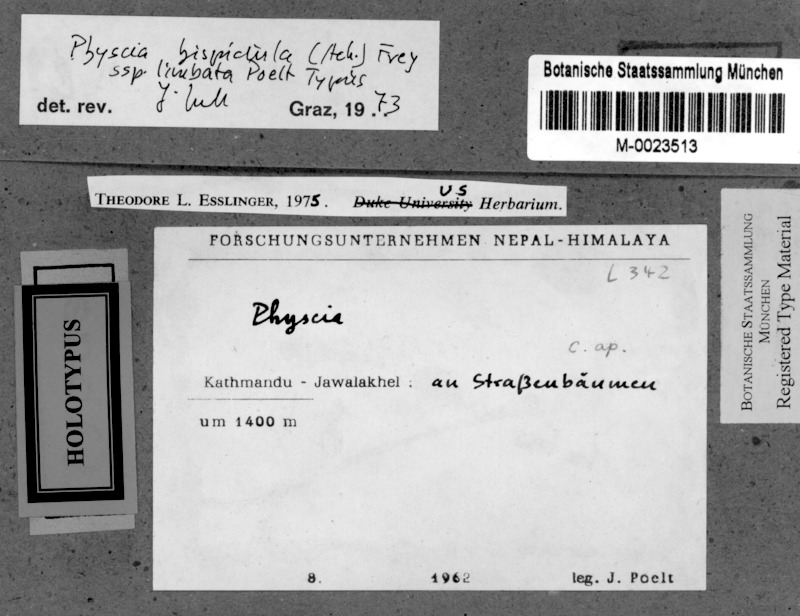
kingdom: Fungi
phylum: Ascomycota
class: Lecanoromycetes
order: Caliciales
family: Physciaceae
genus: Phaeophyscia
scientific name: Phaeophyscia limbata
